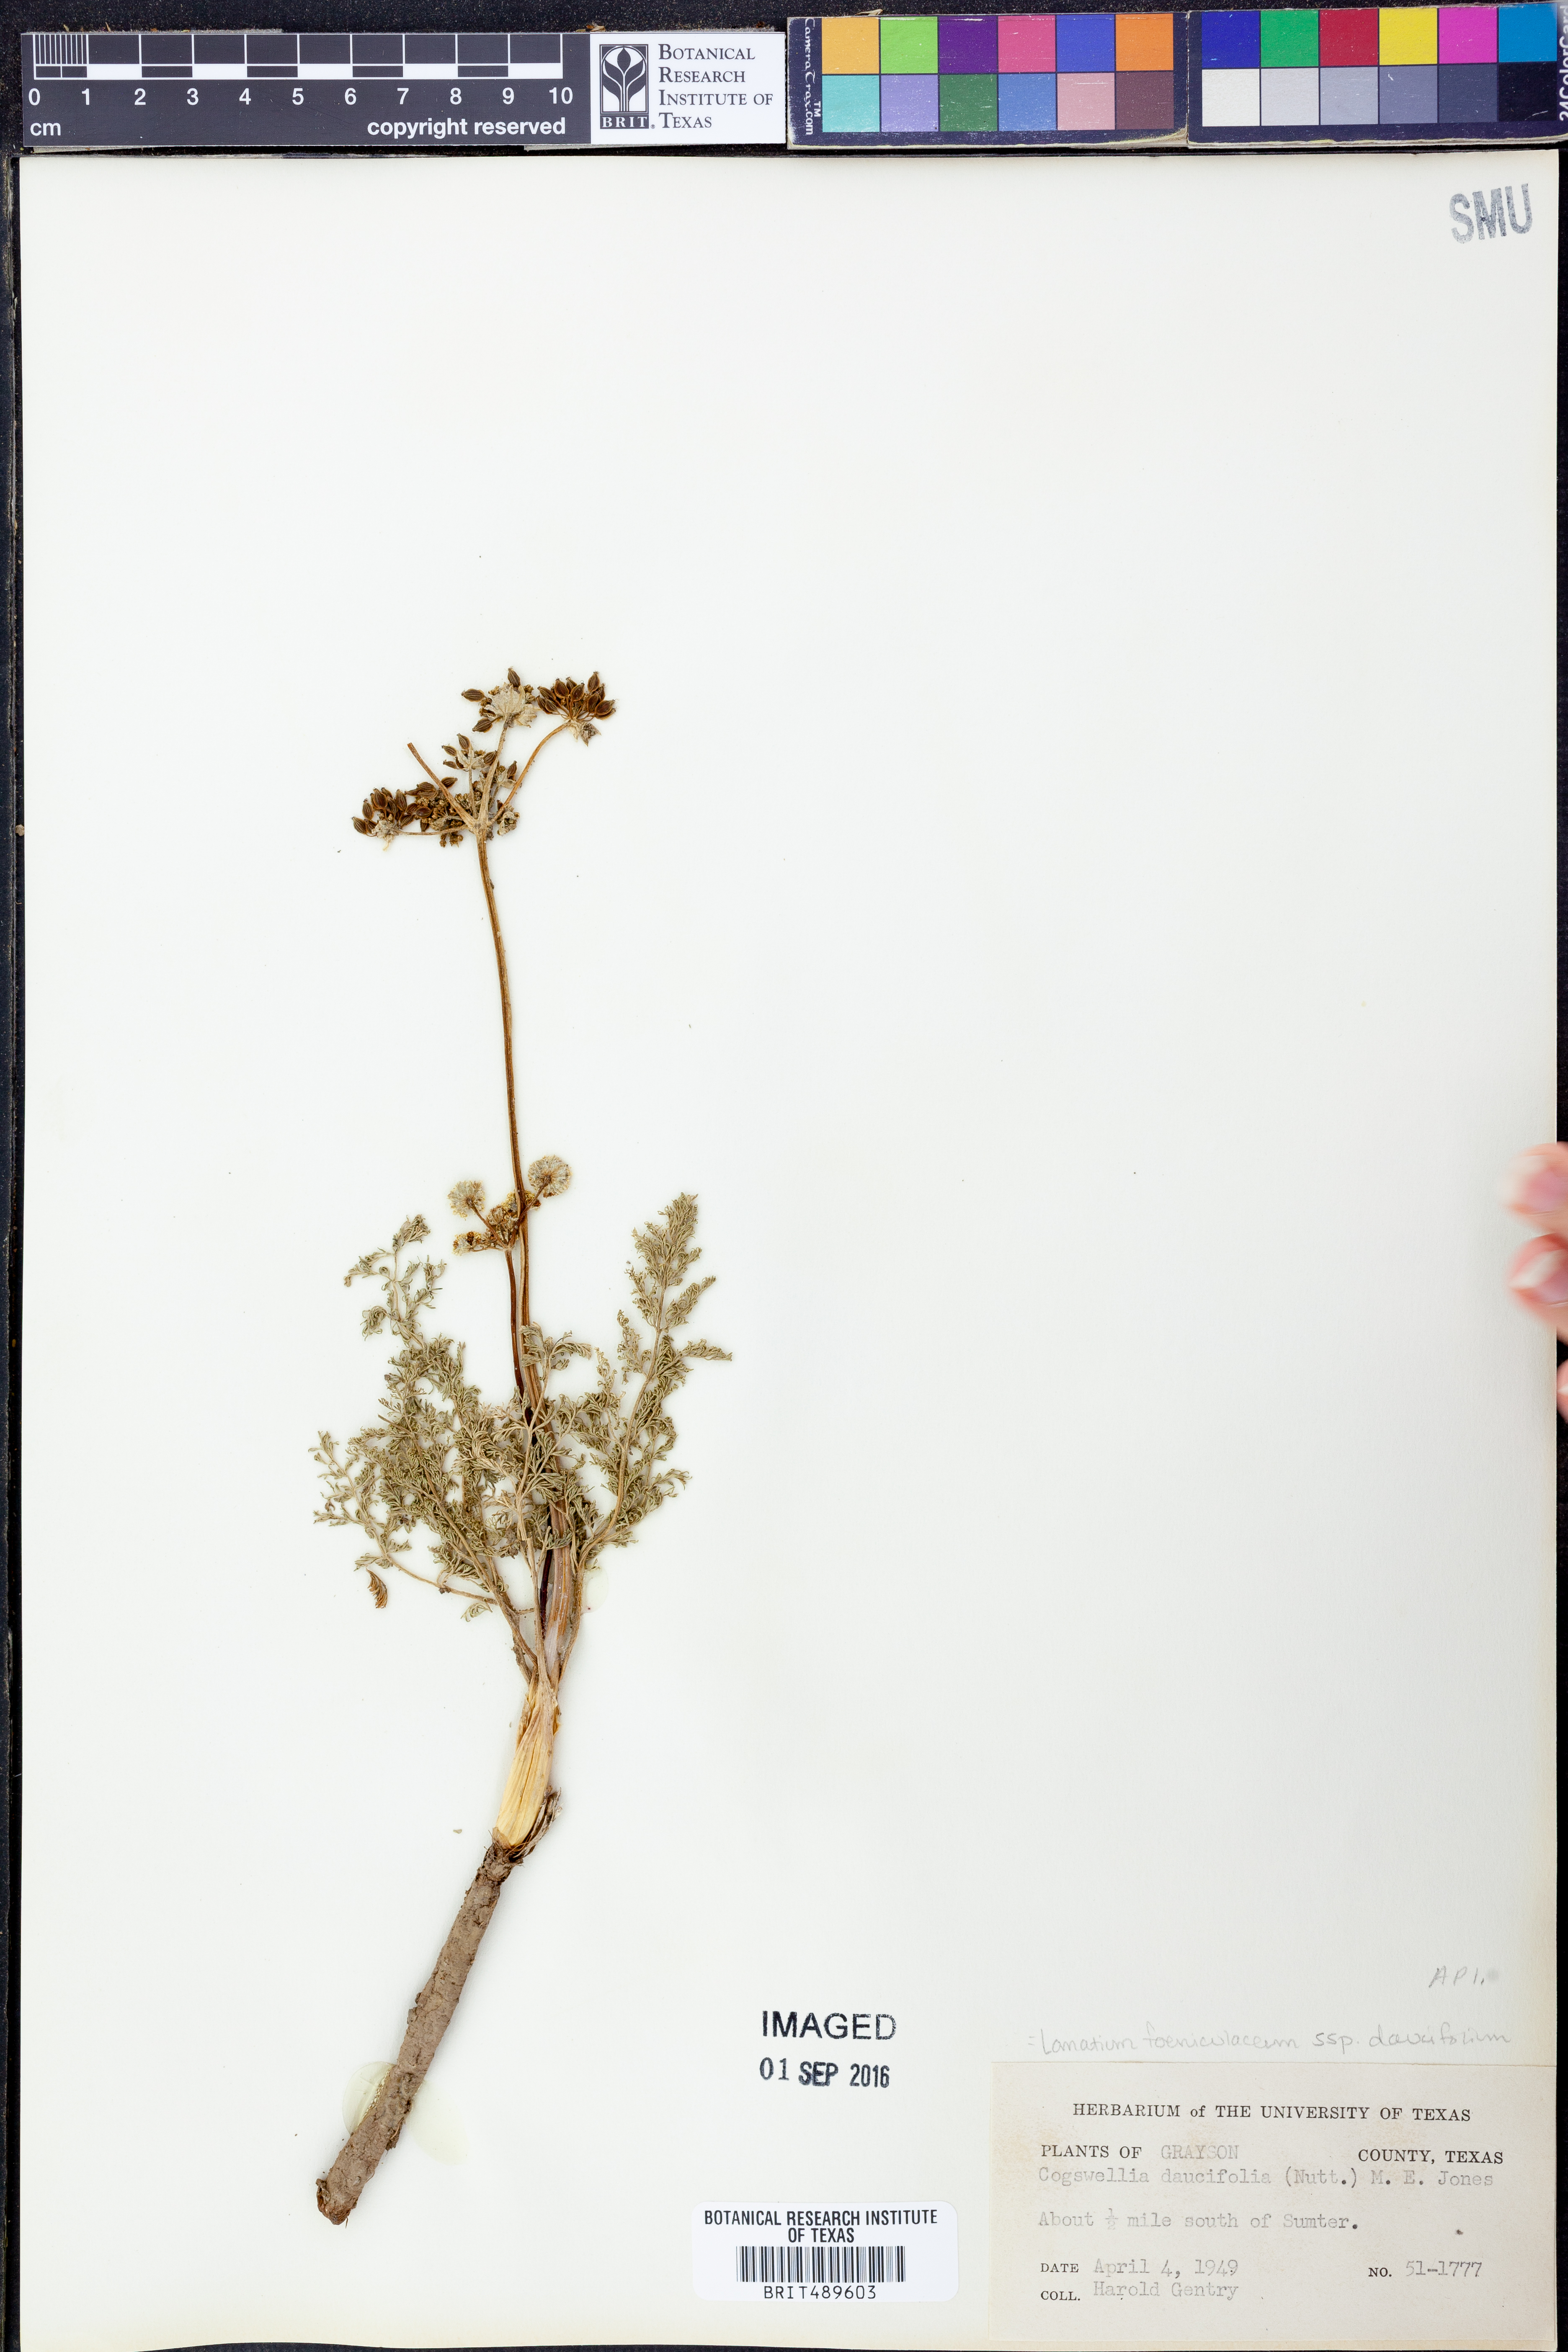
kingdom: Plantae
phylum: Tracheophyta
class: Magnoliopsida
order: Apiales
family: Apiaceae
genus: Lomatium
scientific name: Lomatium foeniculaceum
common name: Desert-parsley
